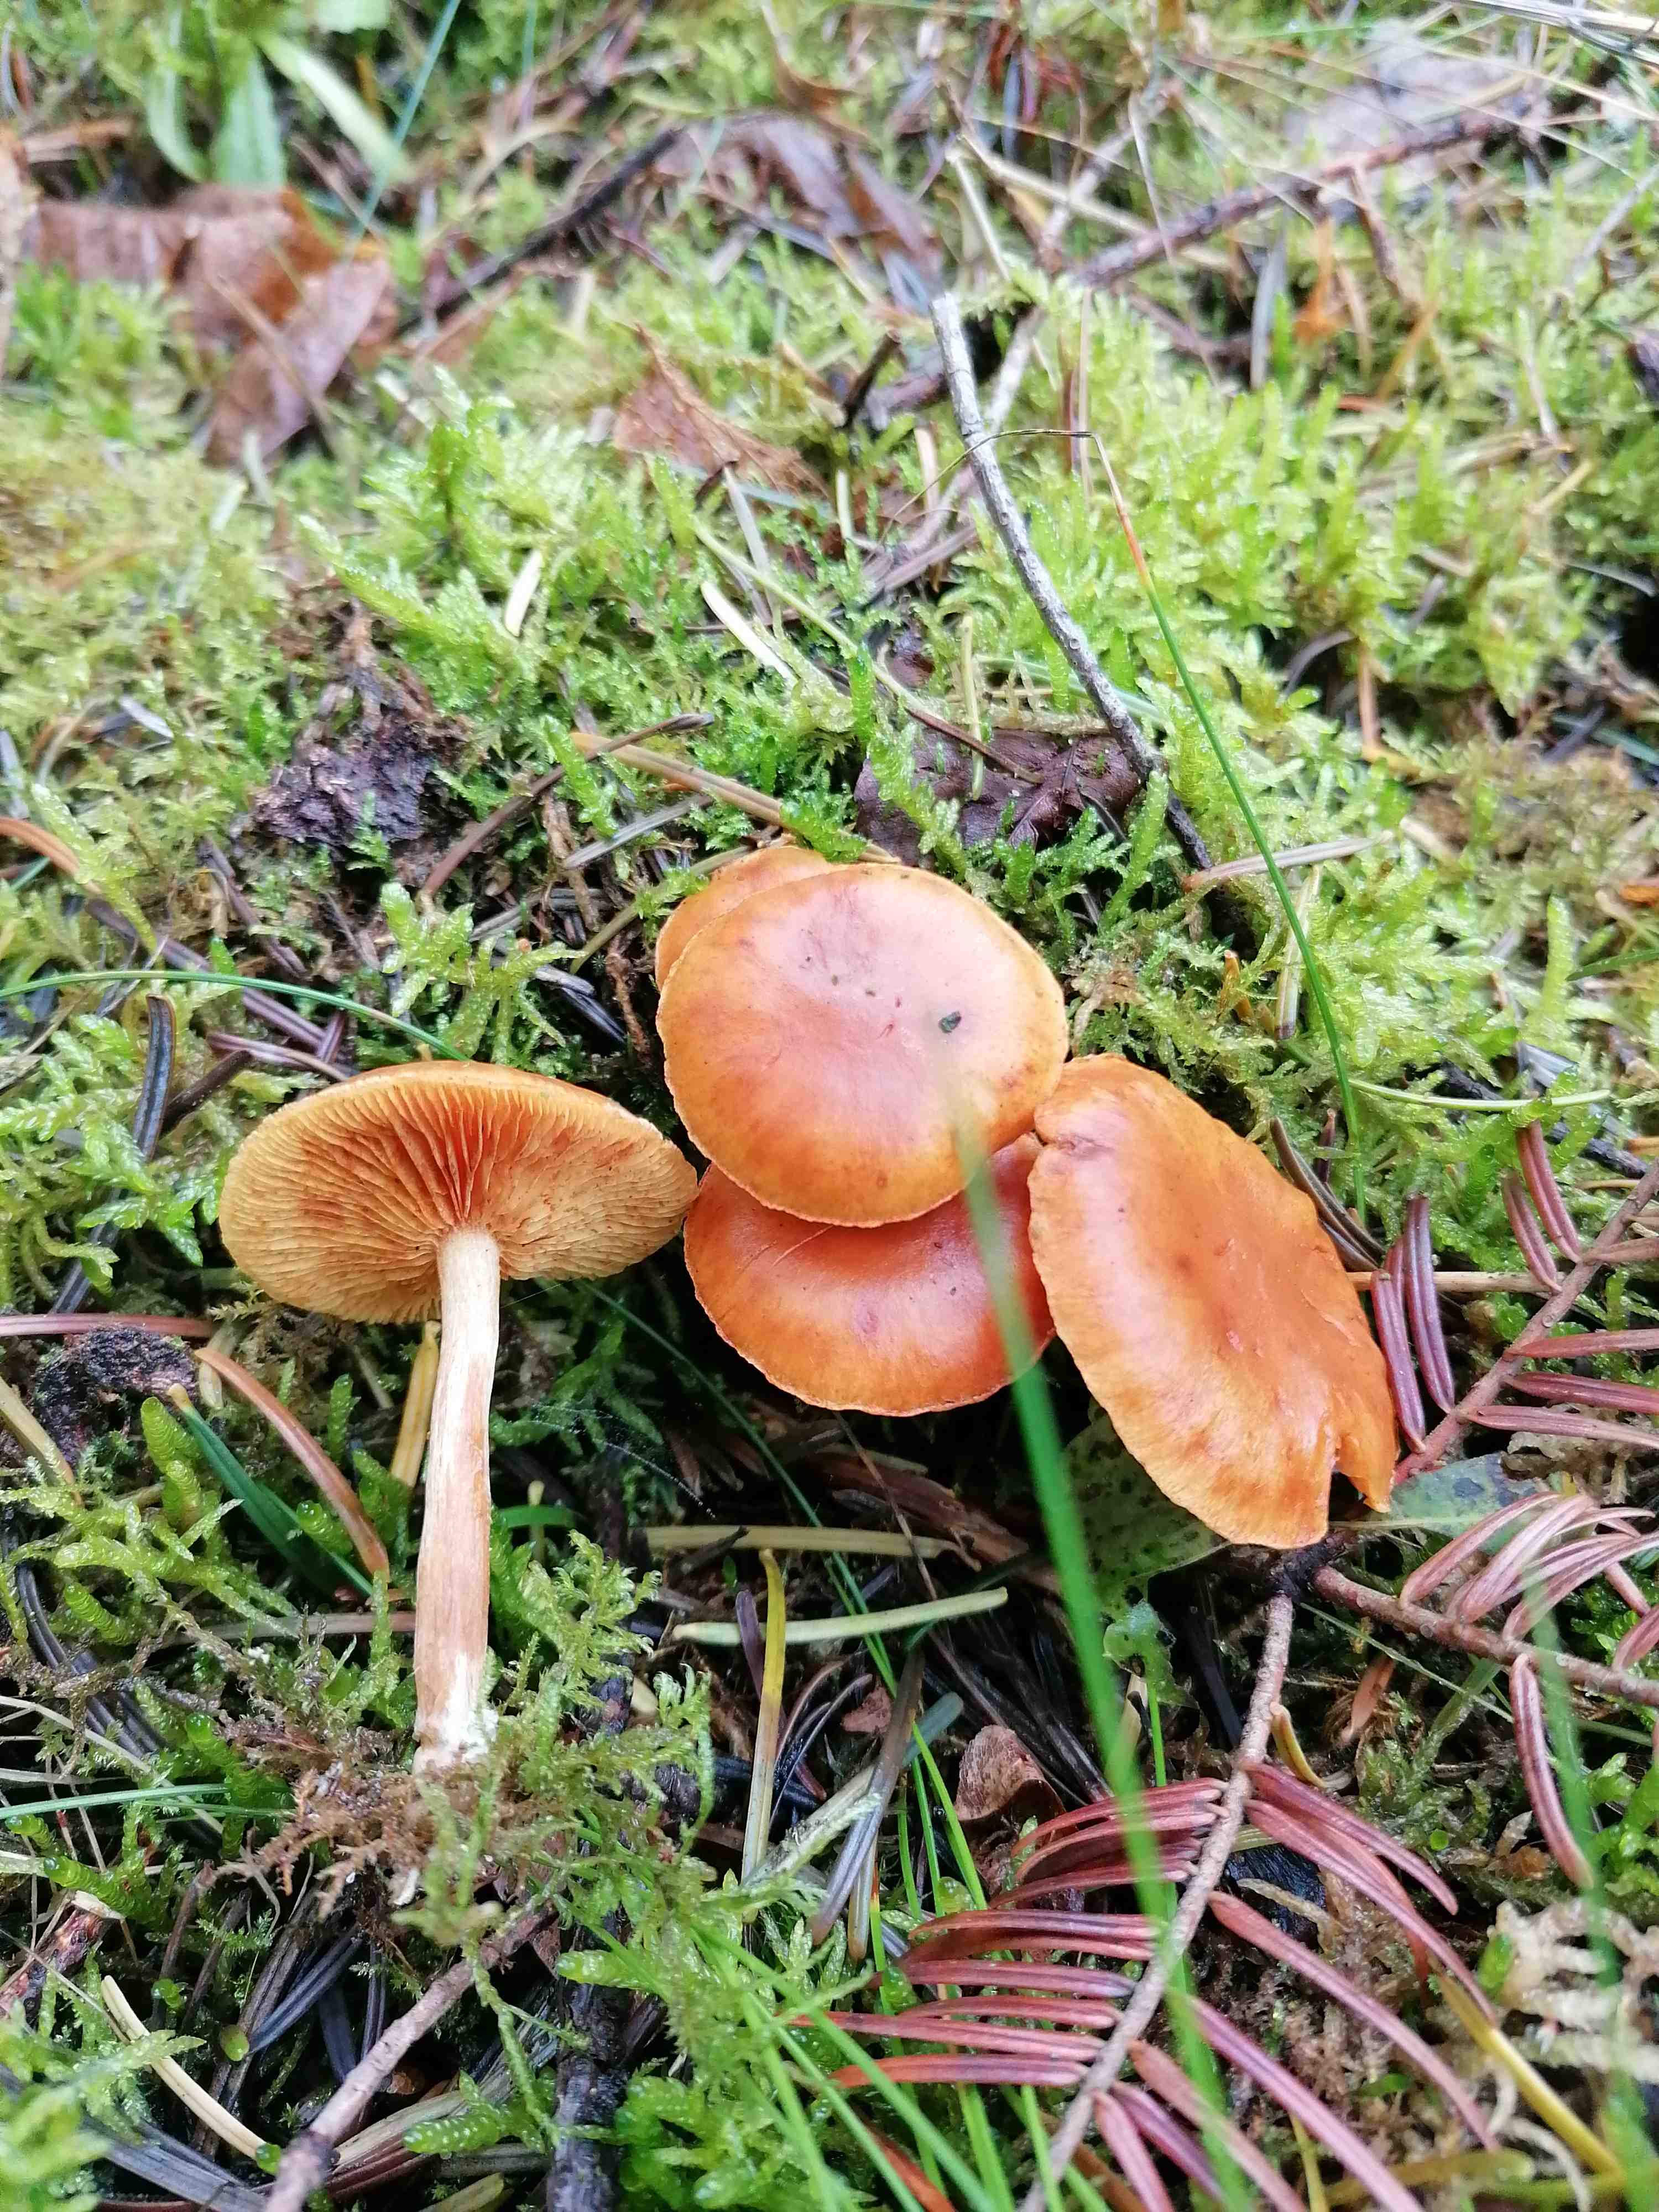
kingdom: Fungi
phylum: Basidiomycota
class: Agaricomycetes
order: Agaricales
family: Hymenogastraceae
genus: Gymnopilus
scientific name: Gymnopilus penetrans
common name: plettet flammehat
